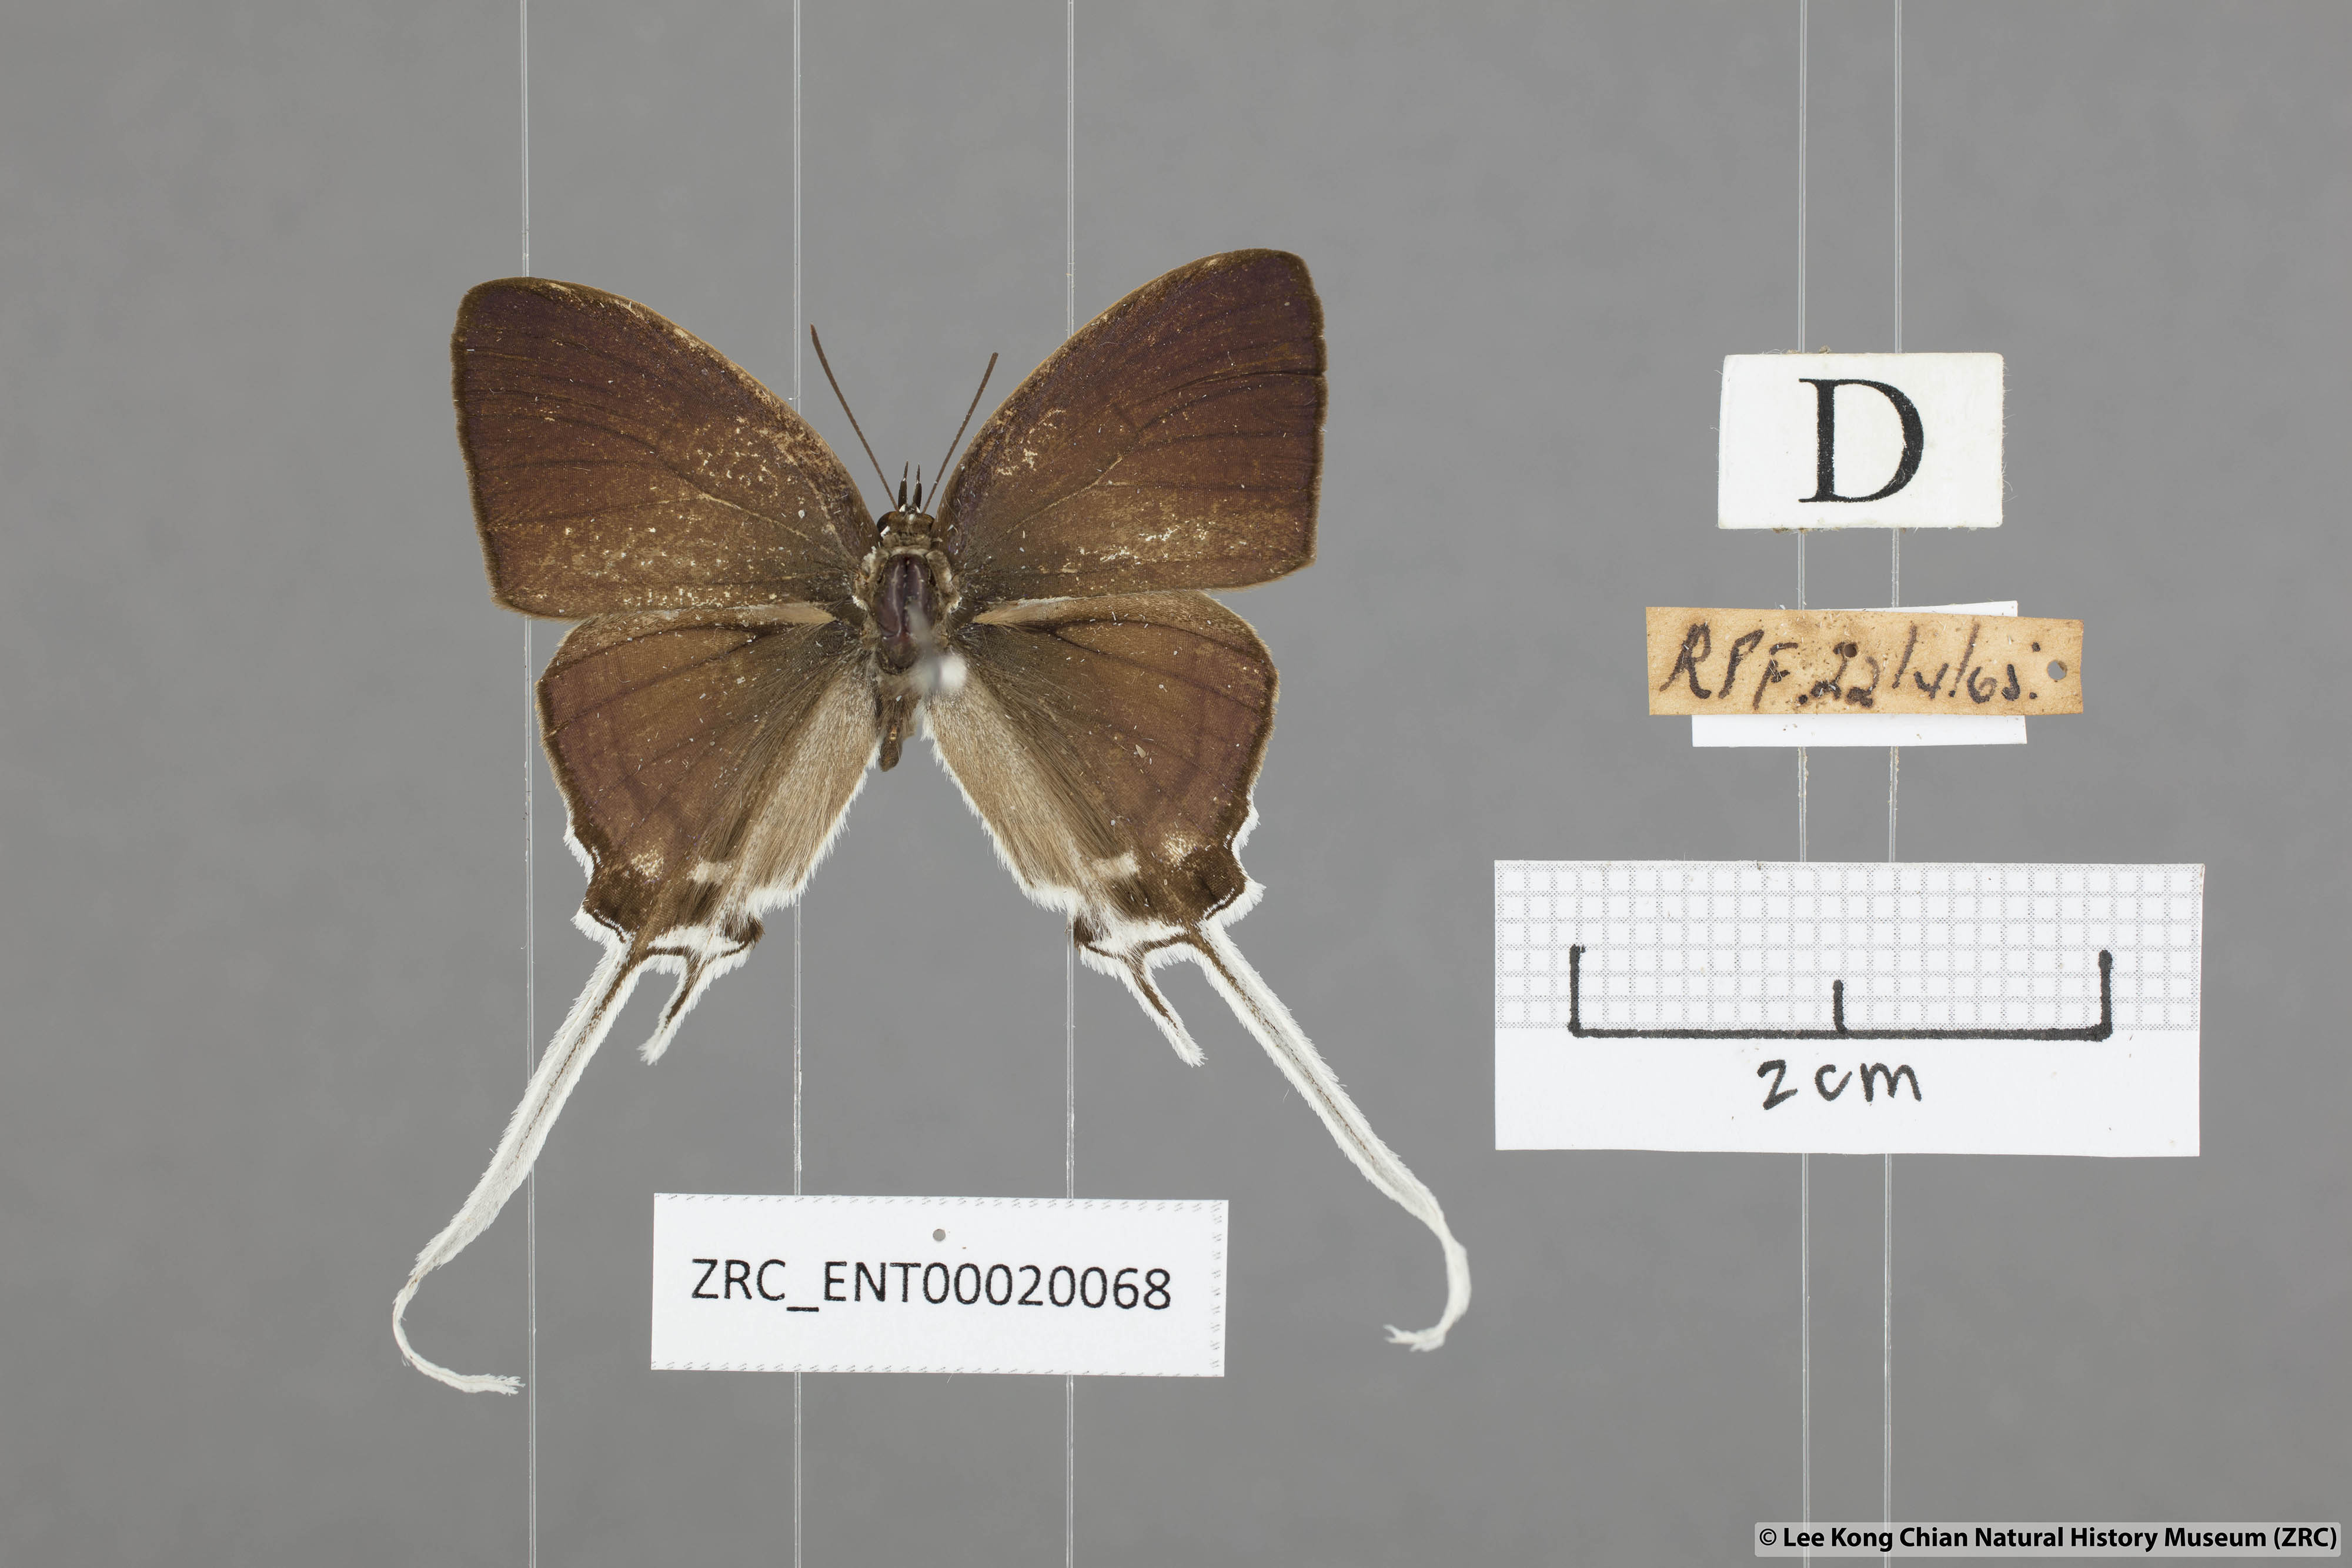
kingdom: Animalia
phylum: Arthropoda
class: Insecta
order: Lepidoptera
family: Lycaenidae
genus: Cheritra
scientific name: Cheritra freja
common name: Common imperial
